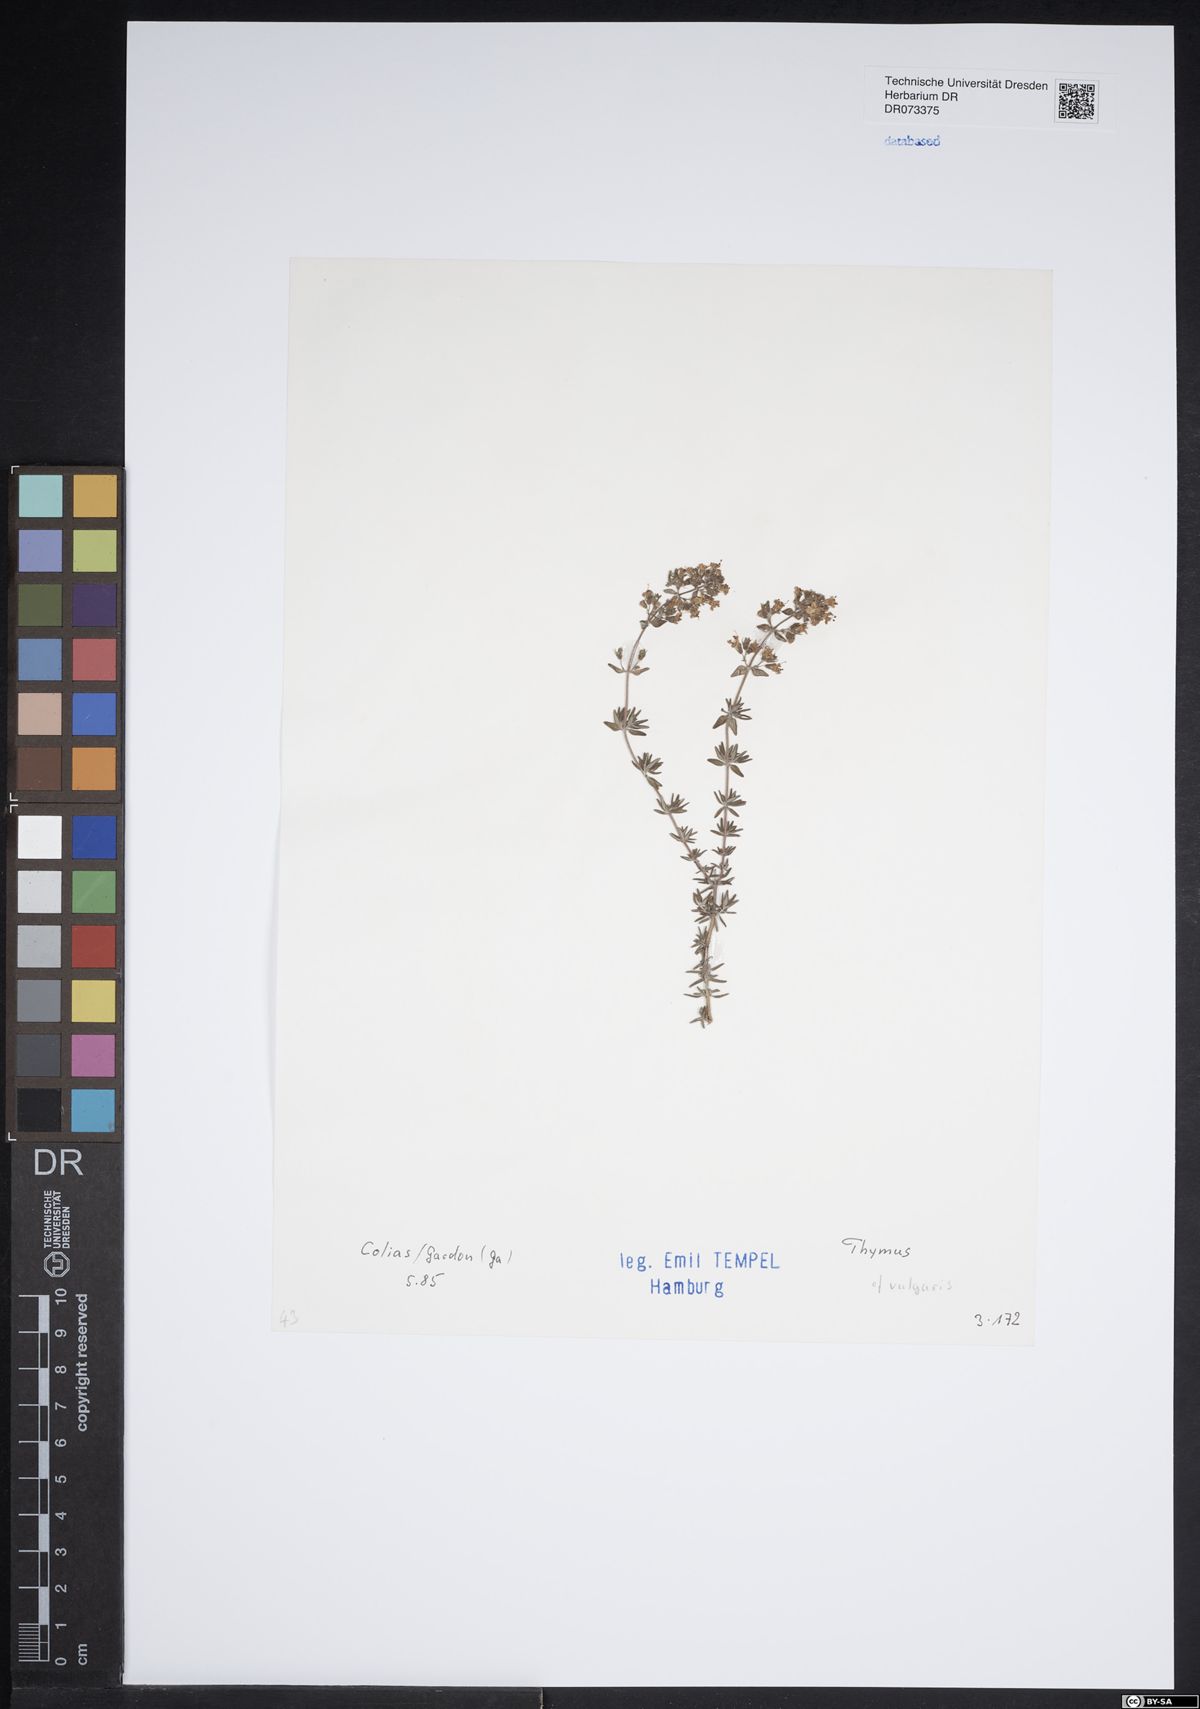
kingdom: Plantae
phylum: Tracheophyta
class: Magnoliopsida
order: Lamiales
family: Lamiaceae
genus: Thymus
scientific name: Thymus vulgaris
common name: Garden thyme
